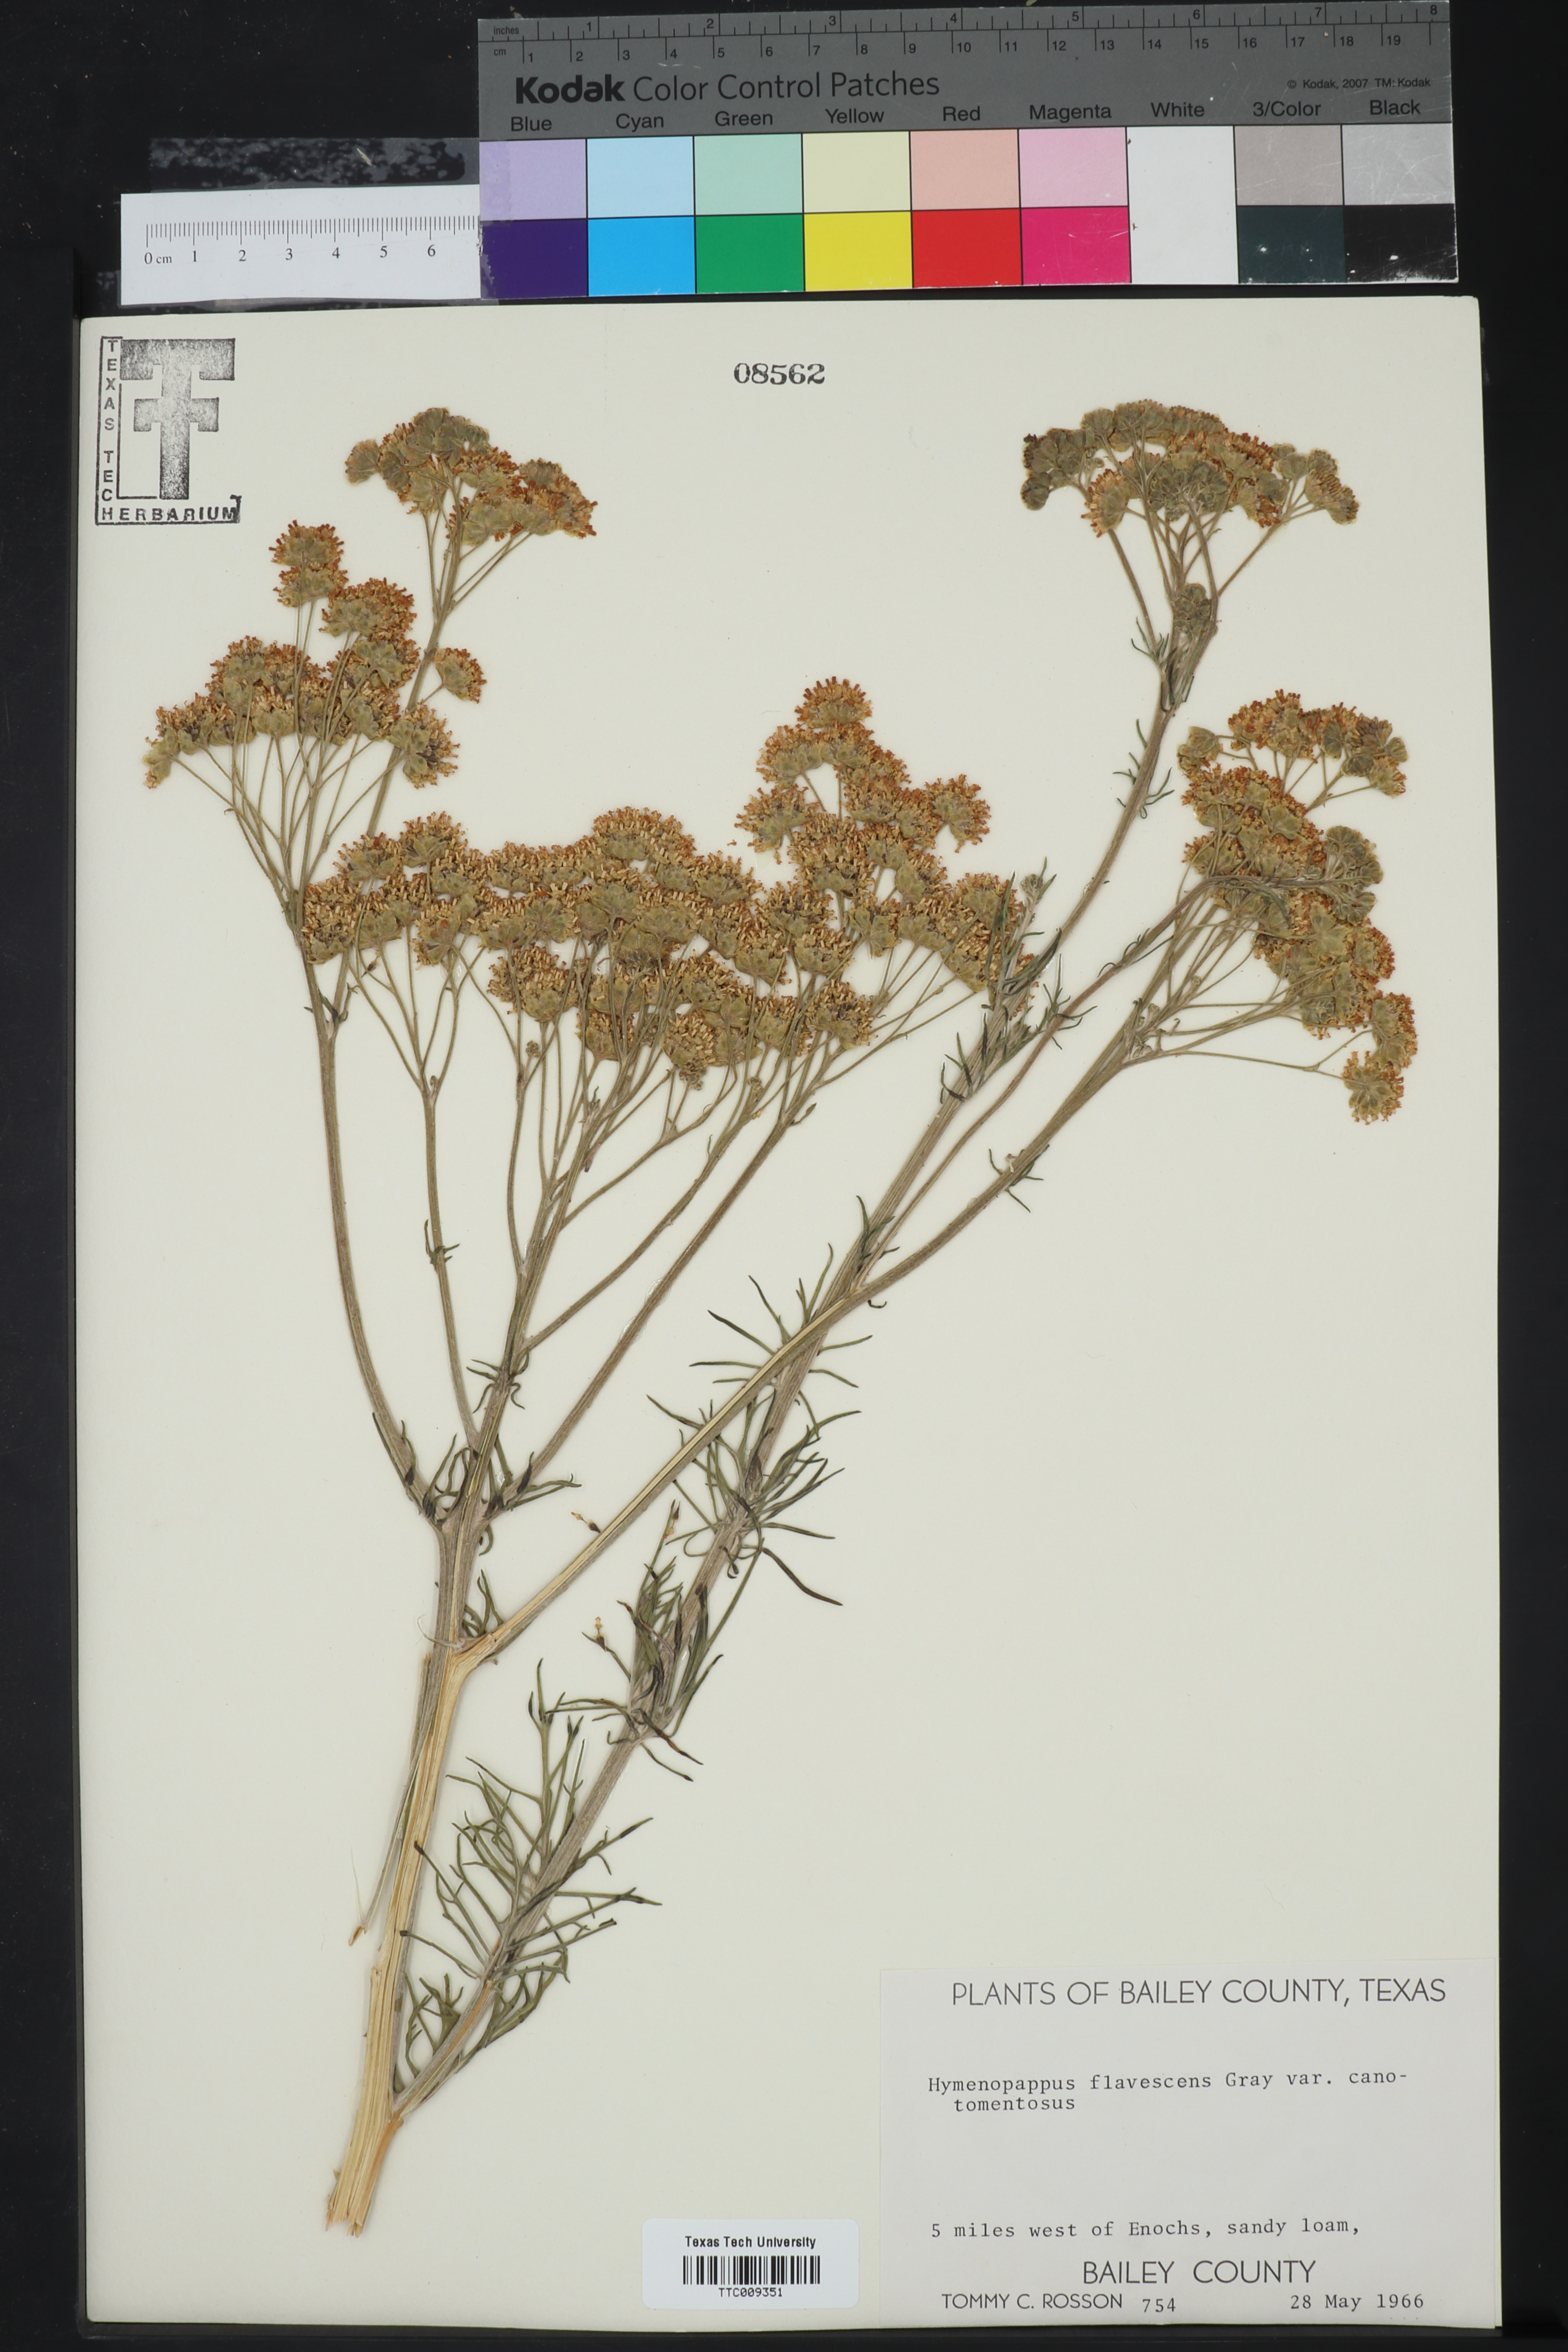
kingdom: Plantae
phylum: Tracheophyta
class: Magnoliopsida
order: Asterales
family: Asteraceae
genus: Hymenopappus
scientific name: Hymenopappus flavescens
